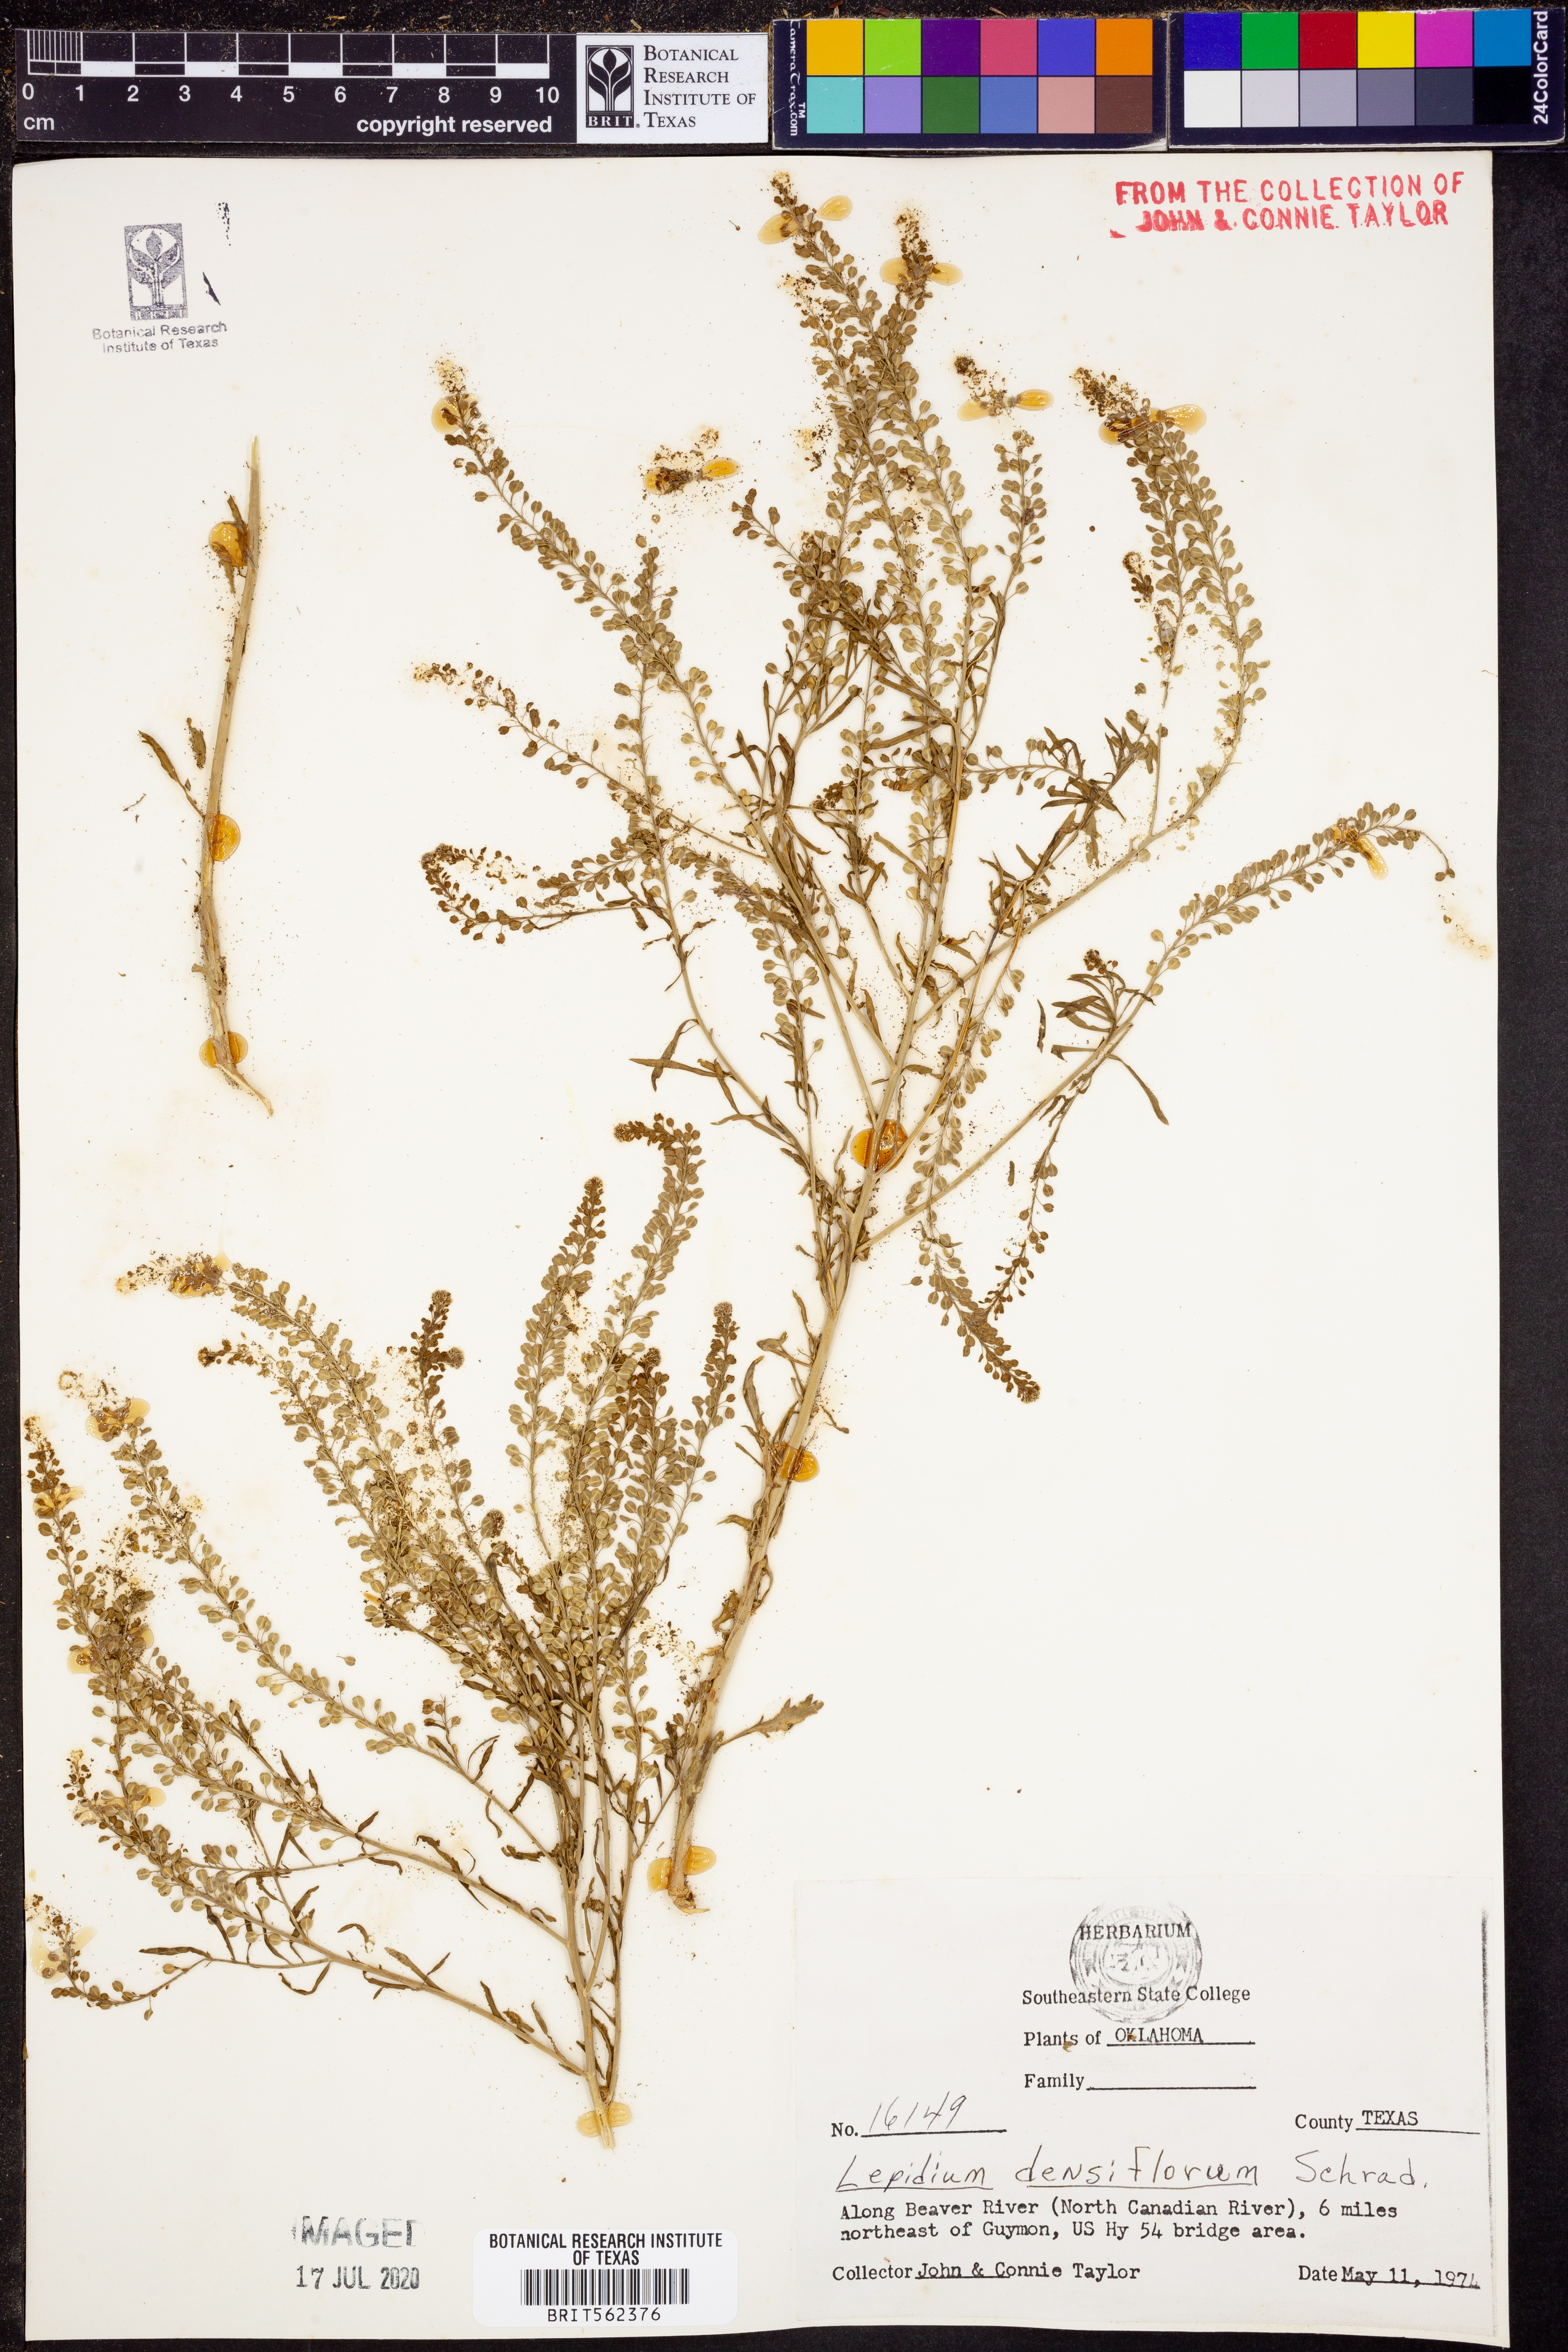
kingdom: Plantae
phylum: Tracheophyta
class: Magnoliopsida
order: Brassicales
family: Brassicaceae
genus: Lepidium
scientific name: Lepidium densiflorum
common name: Miner's pepperwort
